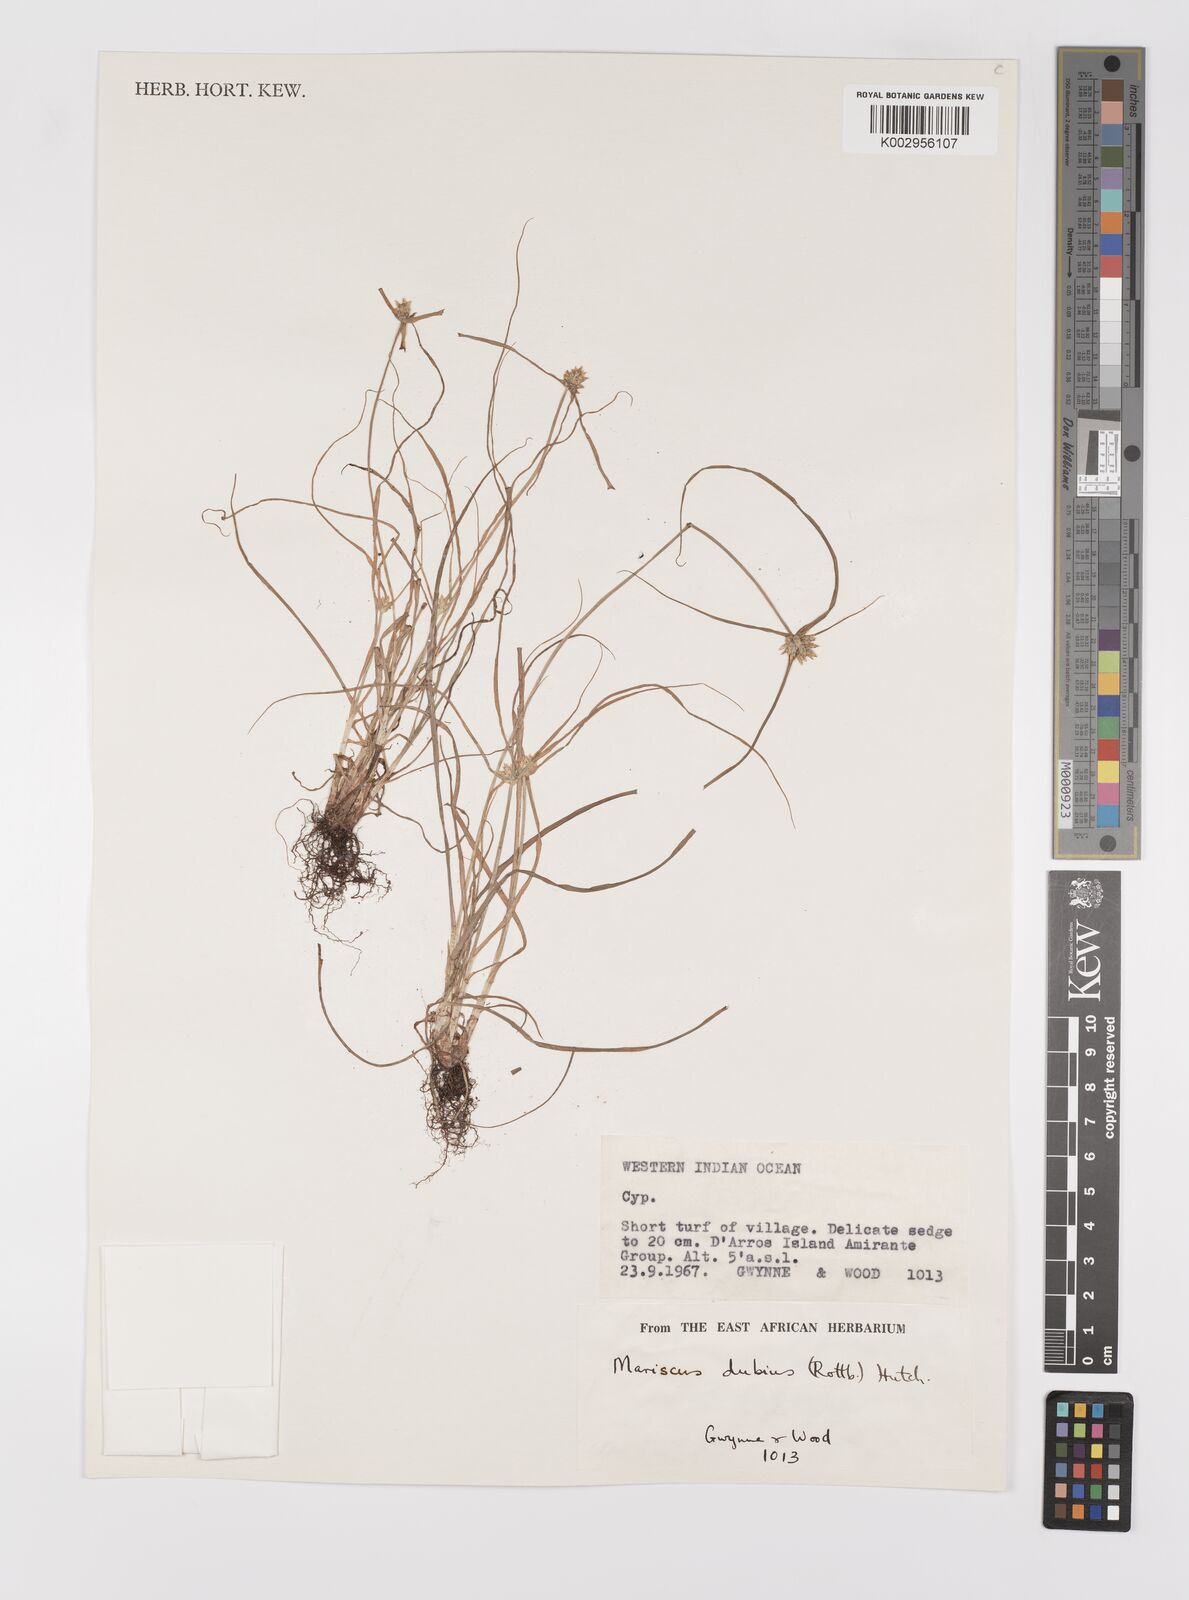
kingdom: Plantae
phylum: Tracheophyta
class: Liliopsida
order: Poales
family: Cyperaceae
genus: Cyperus
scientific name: Cyperus dubius
